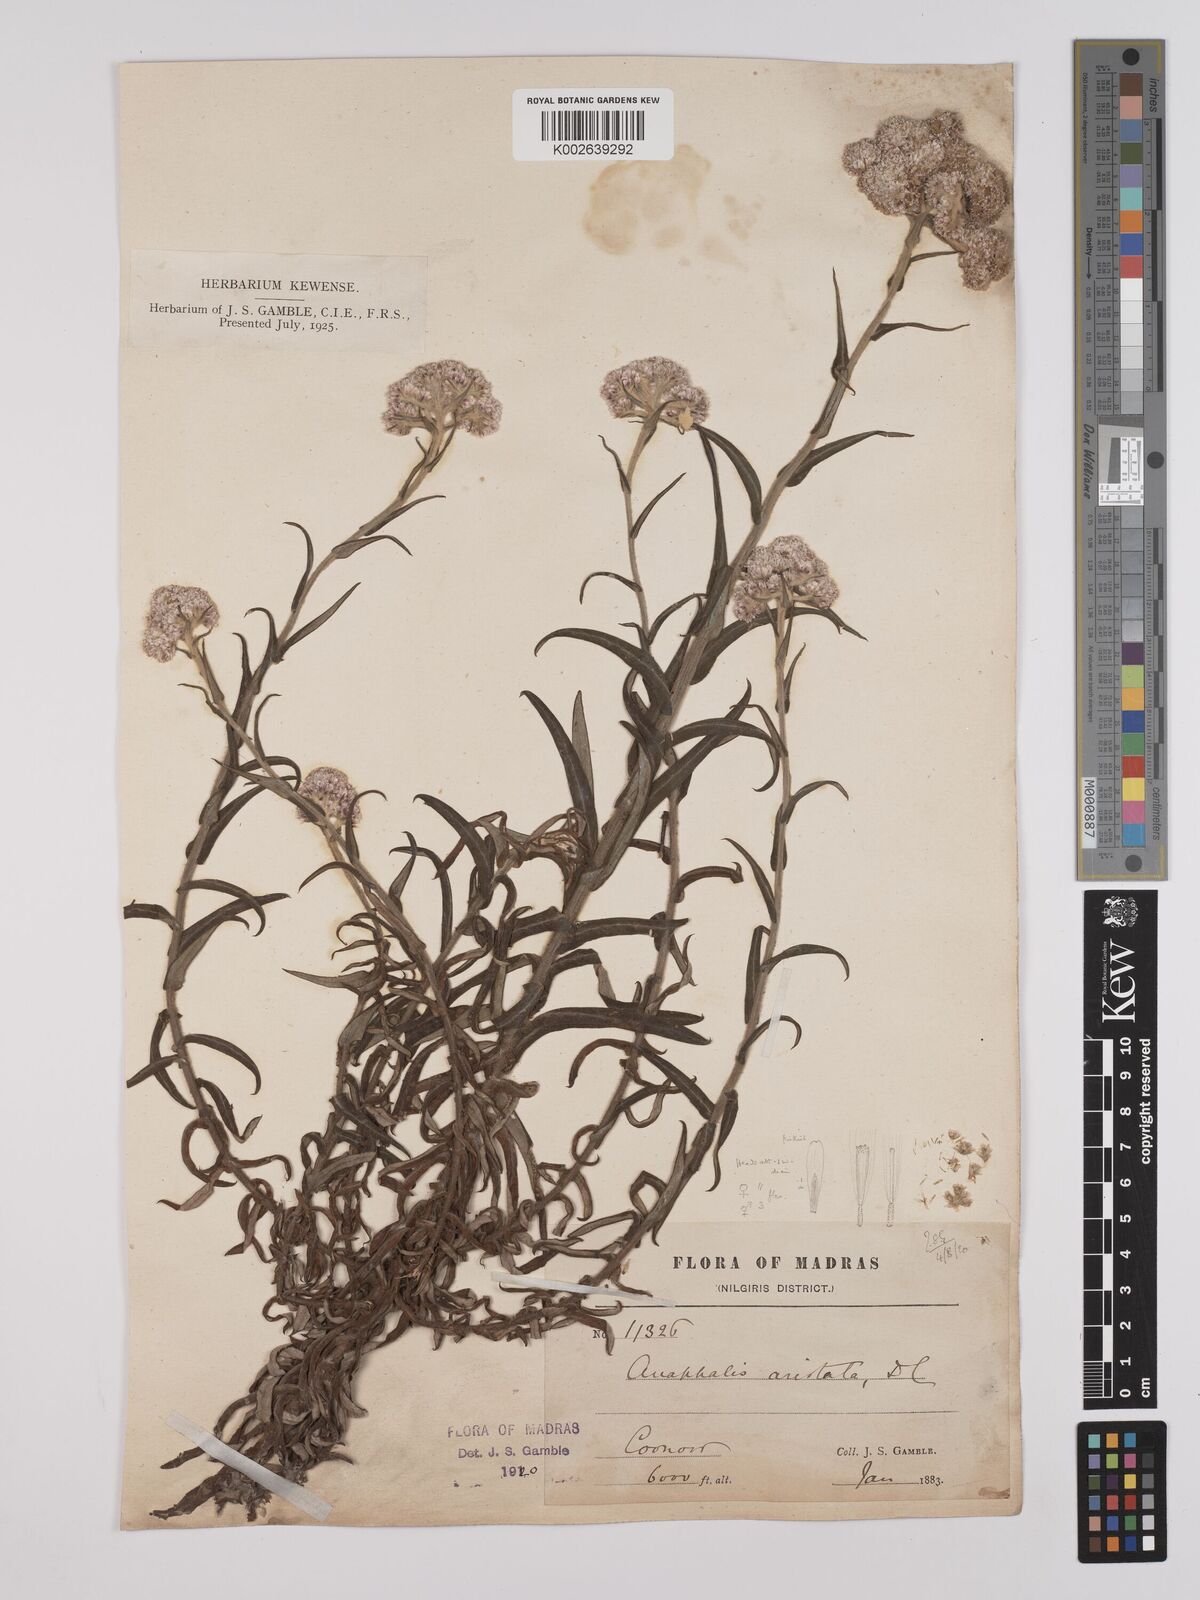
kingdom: Plantae
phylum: Tracheophyta
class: Magnoliopsida
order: Asterales
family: Asteraceae
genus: Anaphalis
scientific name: Anaphalis aristata
